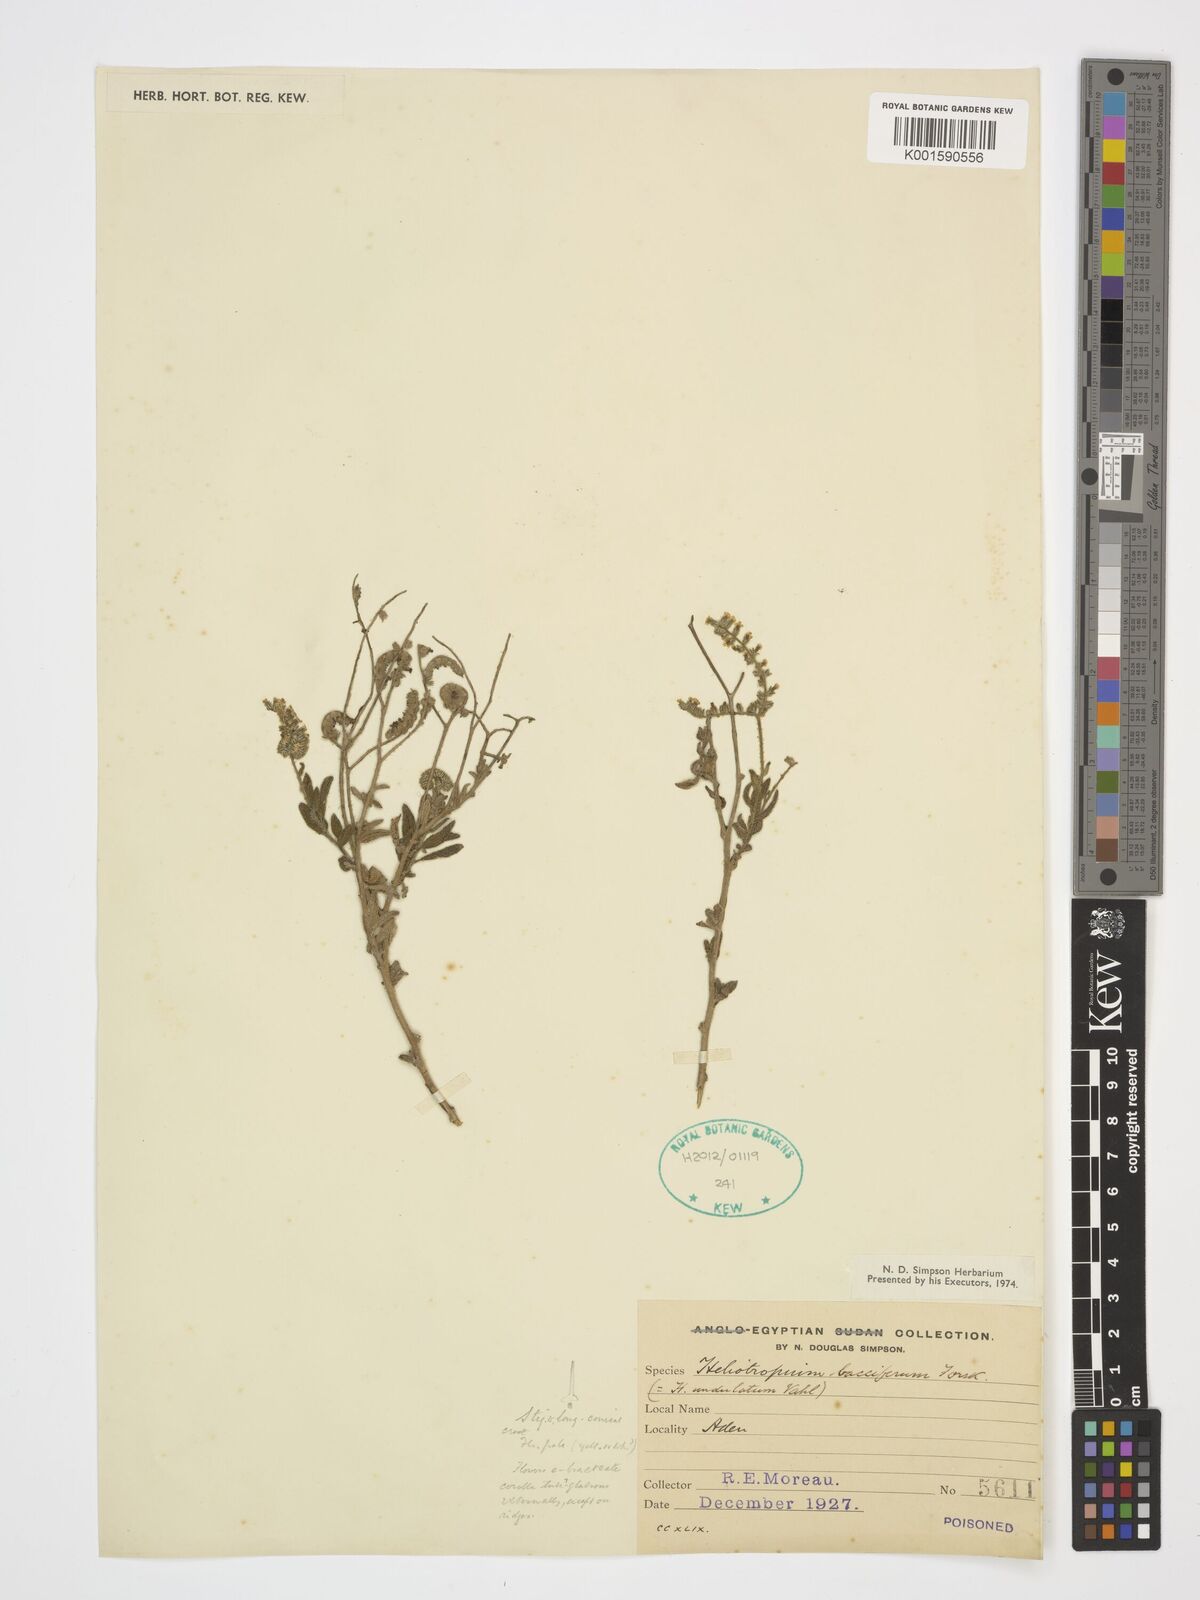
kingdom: Plantae
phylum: Tracheophyta
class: Magnoliopsida
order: Boraginales
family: Heliotropiaceae
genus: Heliotropium
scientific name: Heliotropium bacciferum
